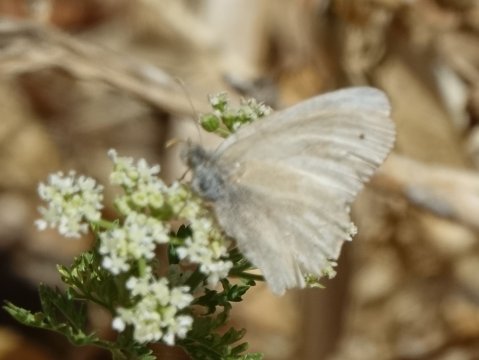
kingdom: Animalia
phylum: Arthropoda
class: Insecta
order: Lepidoptera
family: Nymphalidae
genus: Coenonympha
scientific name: Coenonympha tullia
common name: Large Heath
